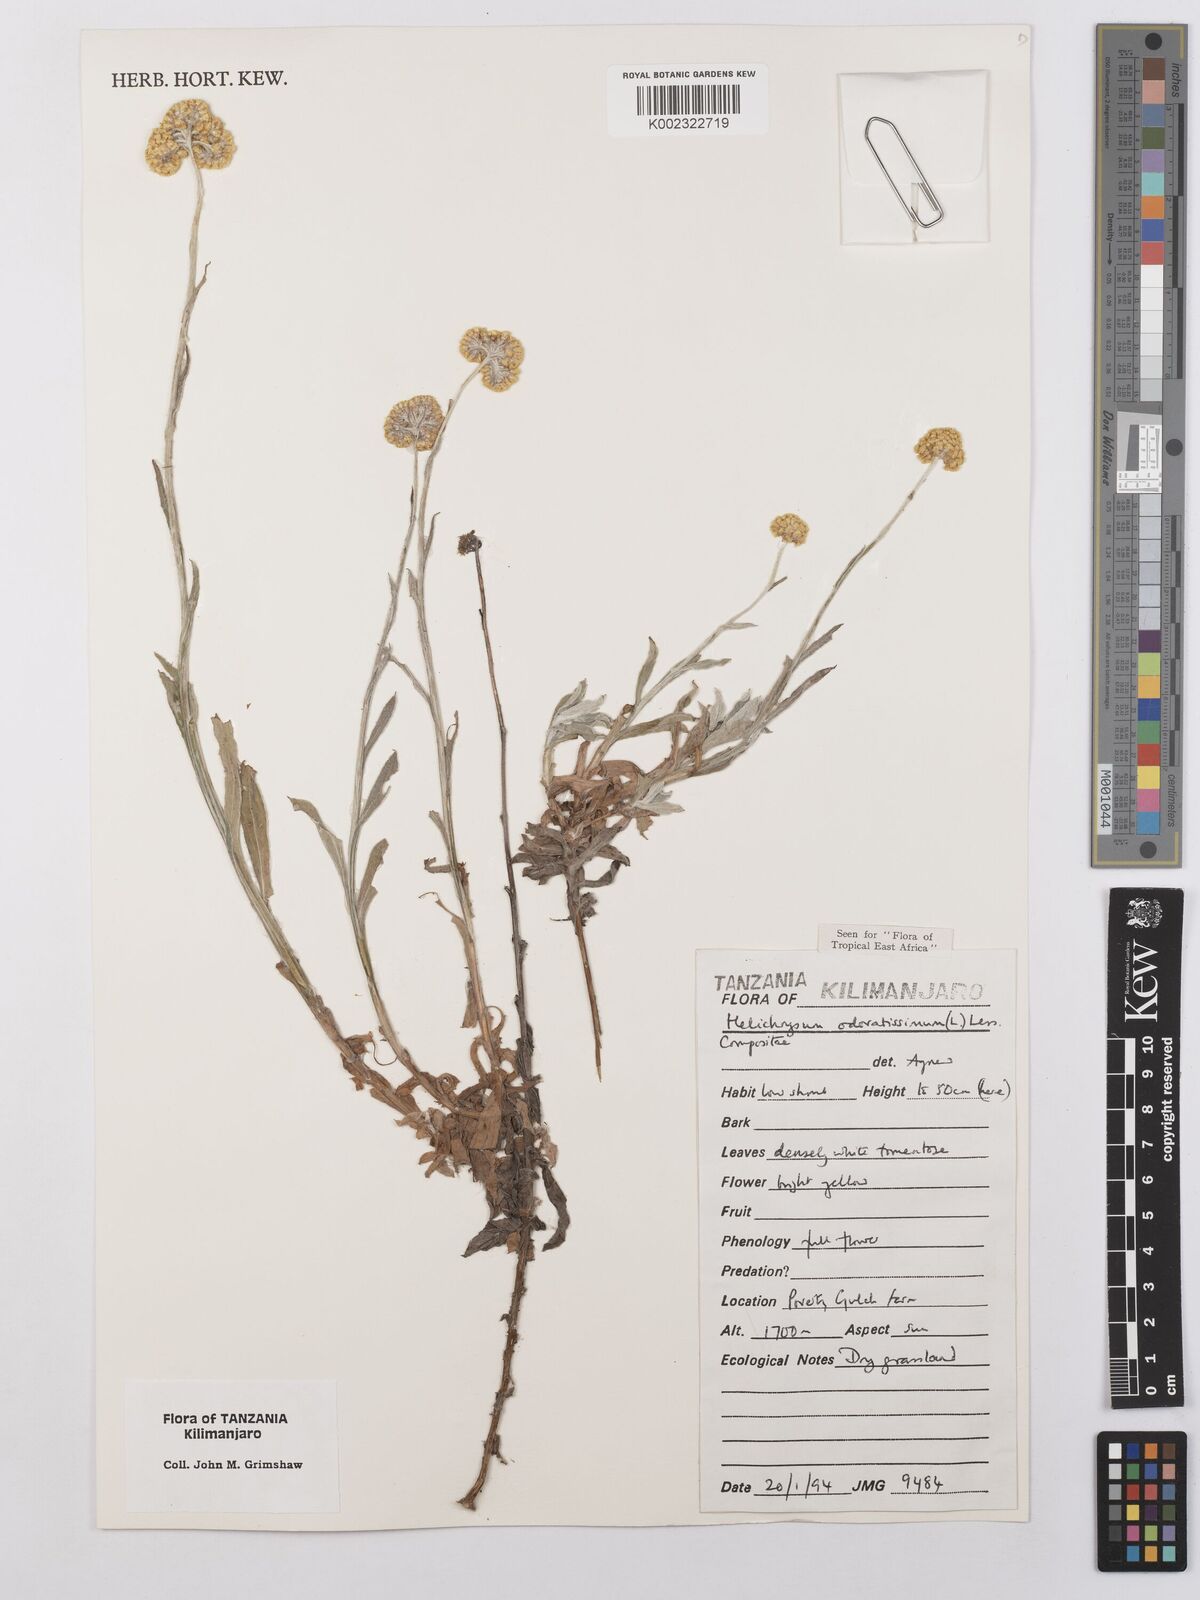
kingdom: Plantae
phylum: Tracheophyta
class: Magnoliopsida
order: Asterales
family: Asteraceae
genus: Helichrysum
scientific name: Helichrysum odoratissimum
